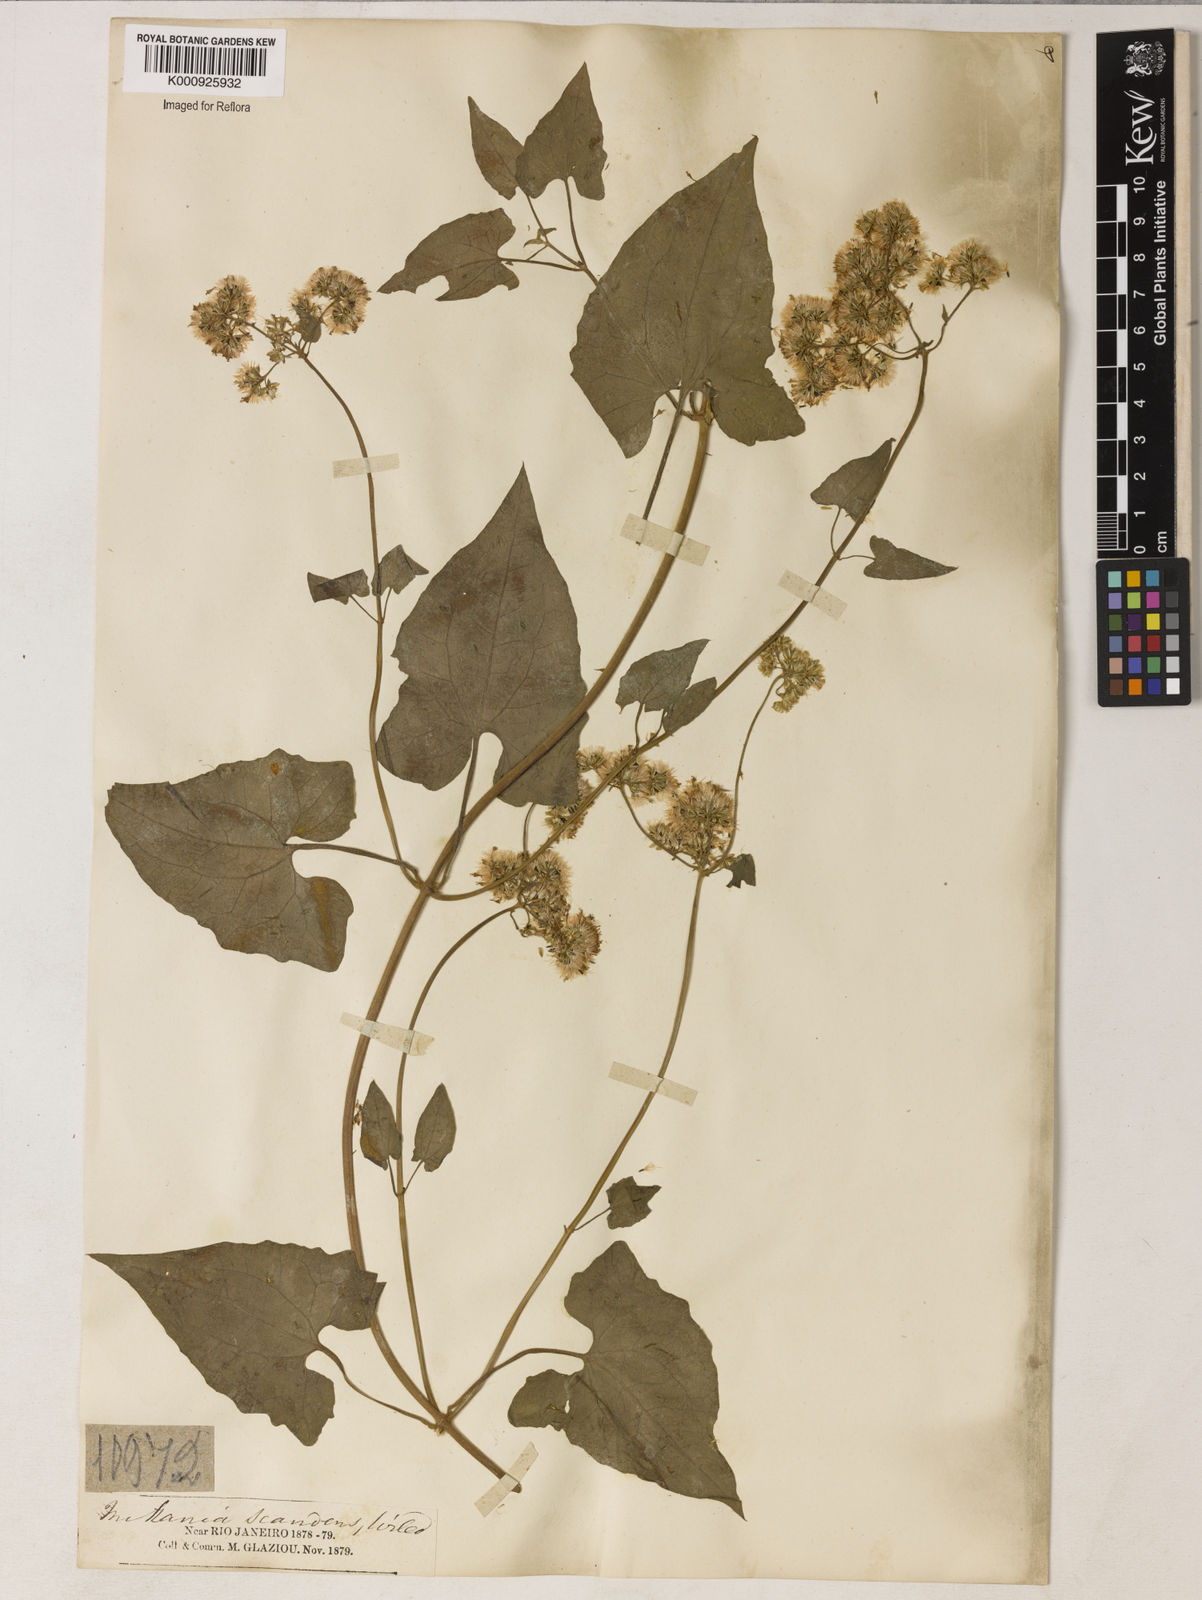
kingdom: Plantae
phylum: Tracheophyta
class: Magnoliopsida
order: Asterales
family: Asteraceae
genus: Mikania
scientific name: Mikania microptera
